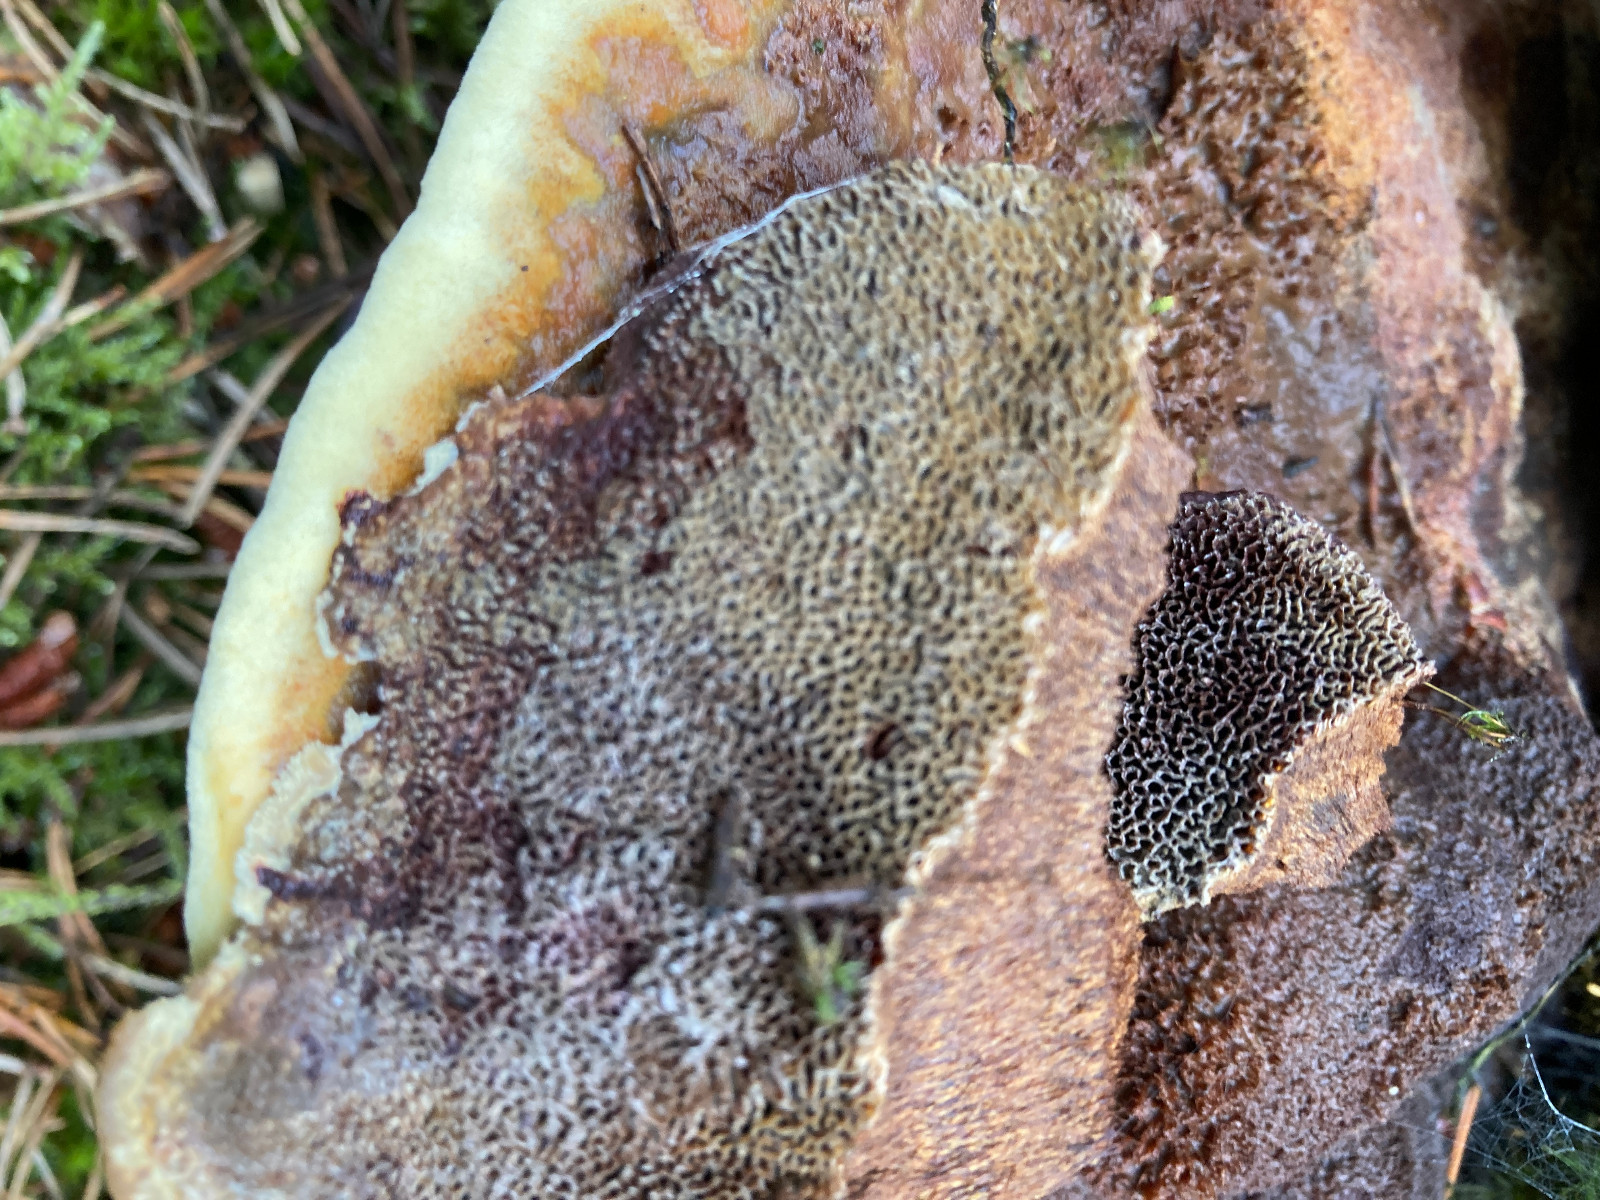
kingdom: Fungi
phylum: Basidiomycota
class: Agaricomycetes
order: Polyporales
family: Laetiporaceae
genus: Phaeolus
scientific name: Phaeolus schweinitzii
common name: brunporesvamp
